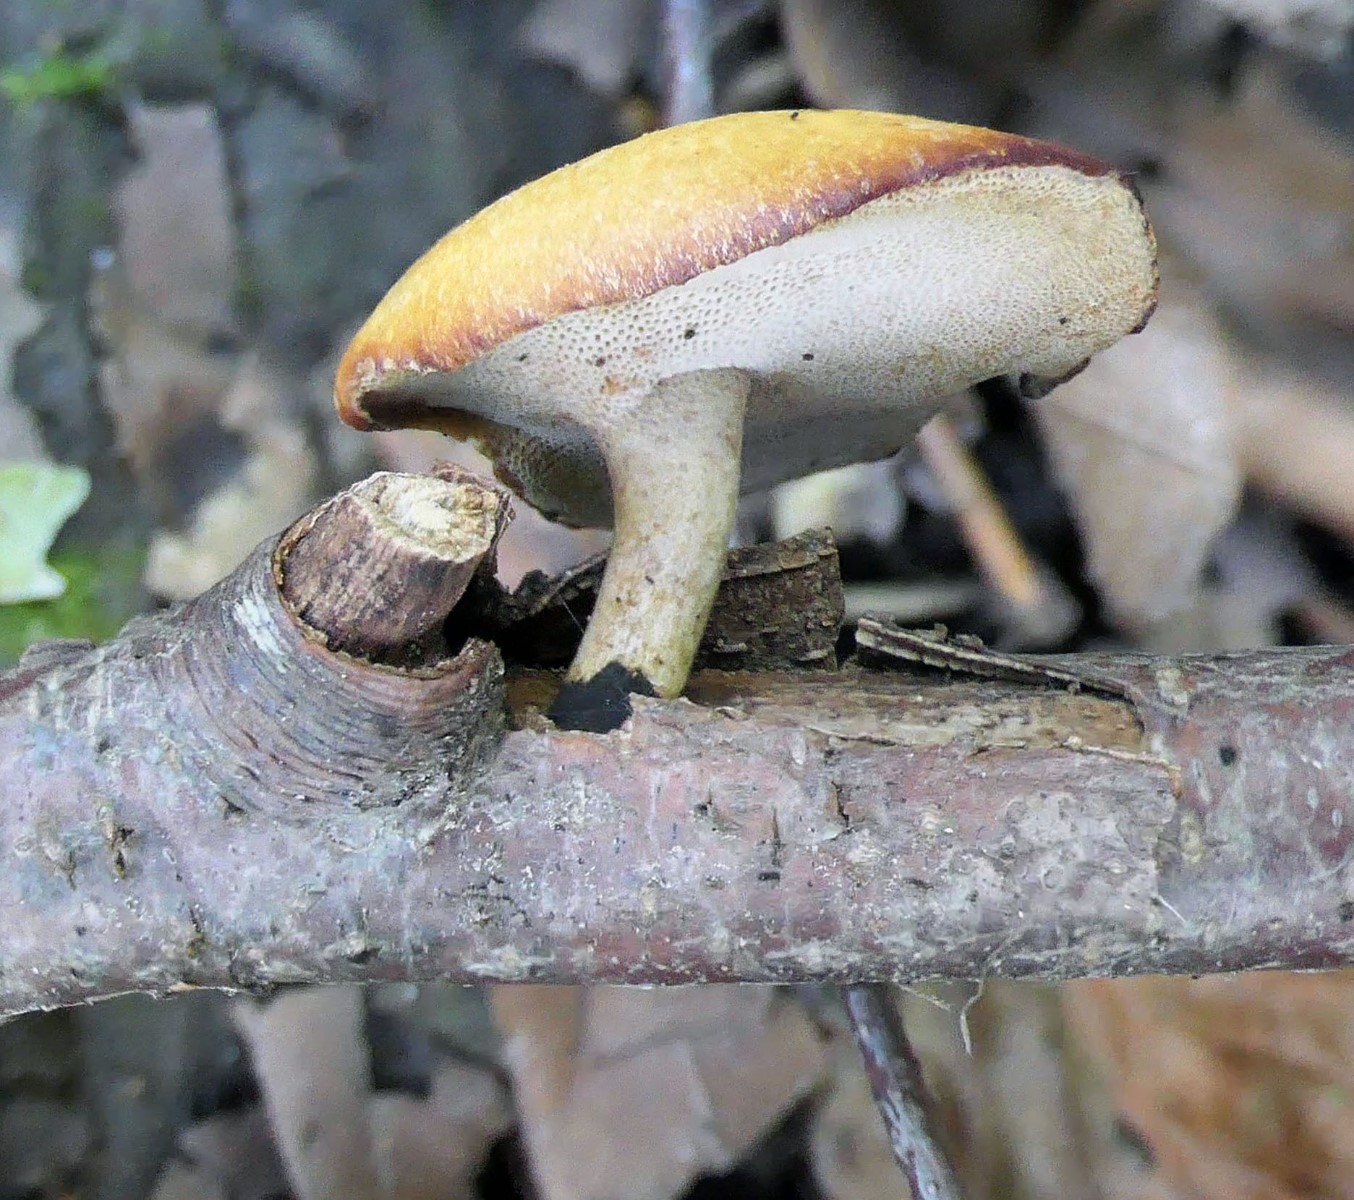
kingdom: Fungi
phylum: Basidiomycota
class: Agaricomycetes
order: Polyporales
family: Polyporaceae
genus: Cerioporus
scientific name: Cerioporus varius
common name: foranderlig stilkporesvamp
